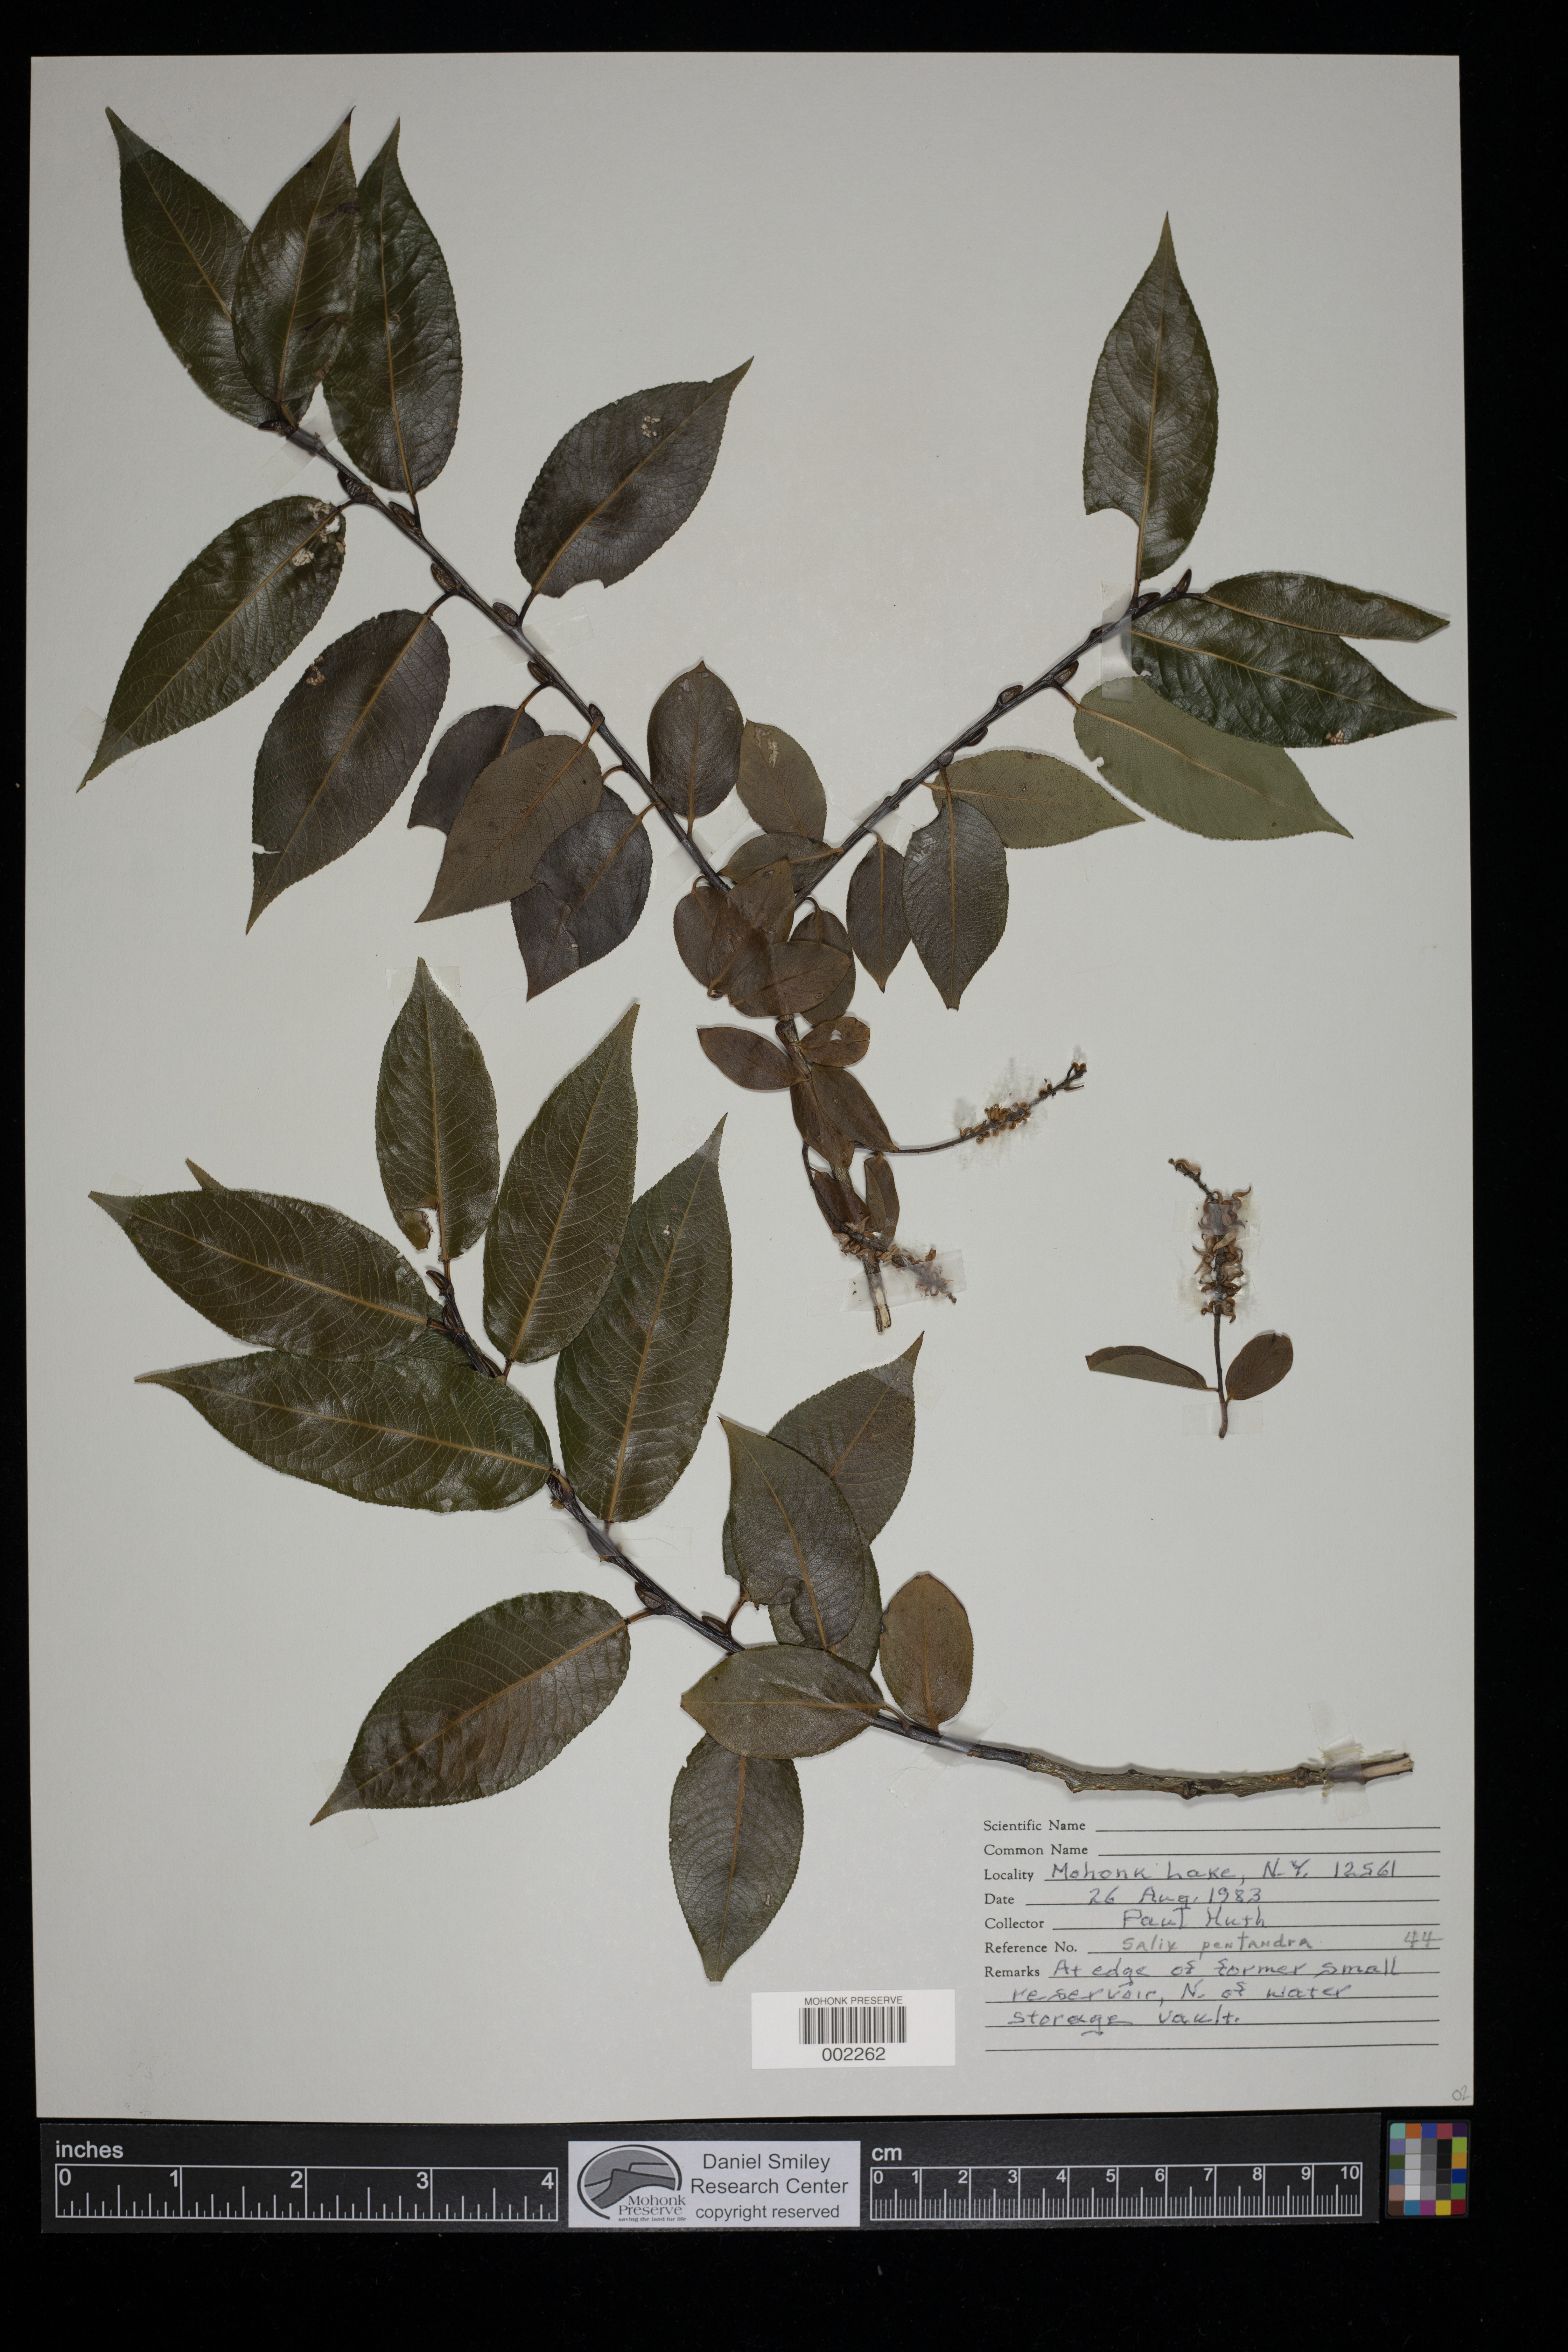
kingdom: Plantae
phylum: Tracheophyta
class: Magnoliopsida
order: Malpighiales
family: Salicaceae
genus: Salix
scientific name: Salix pentandra
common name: Bay willow
